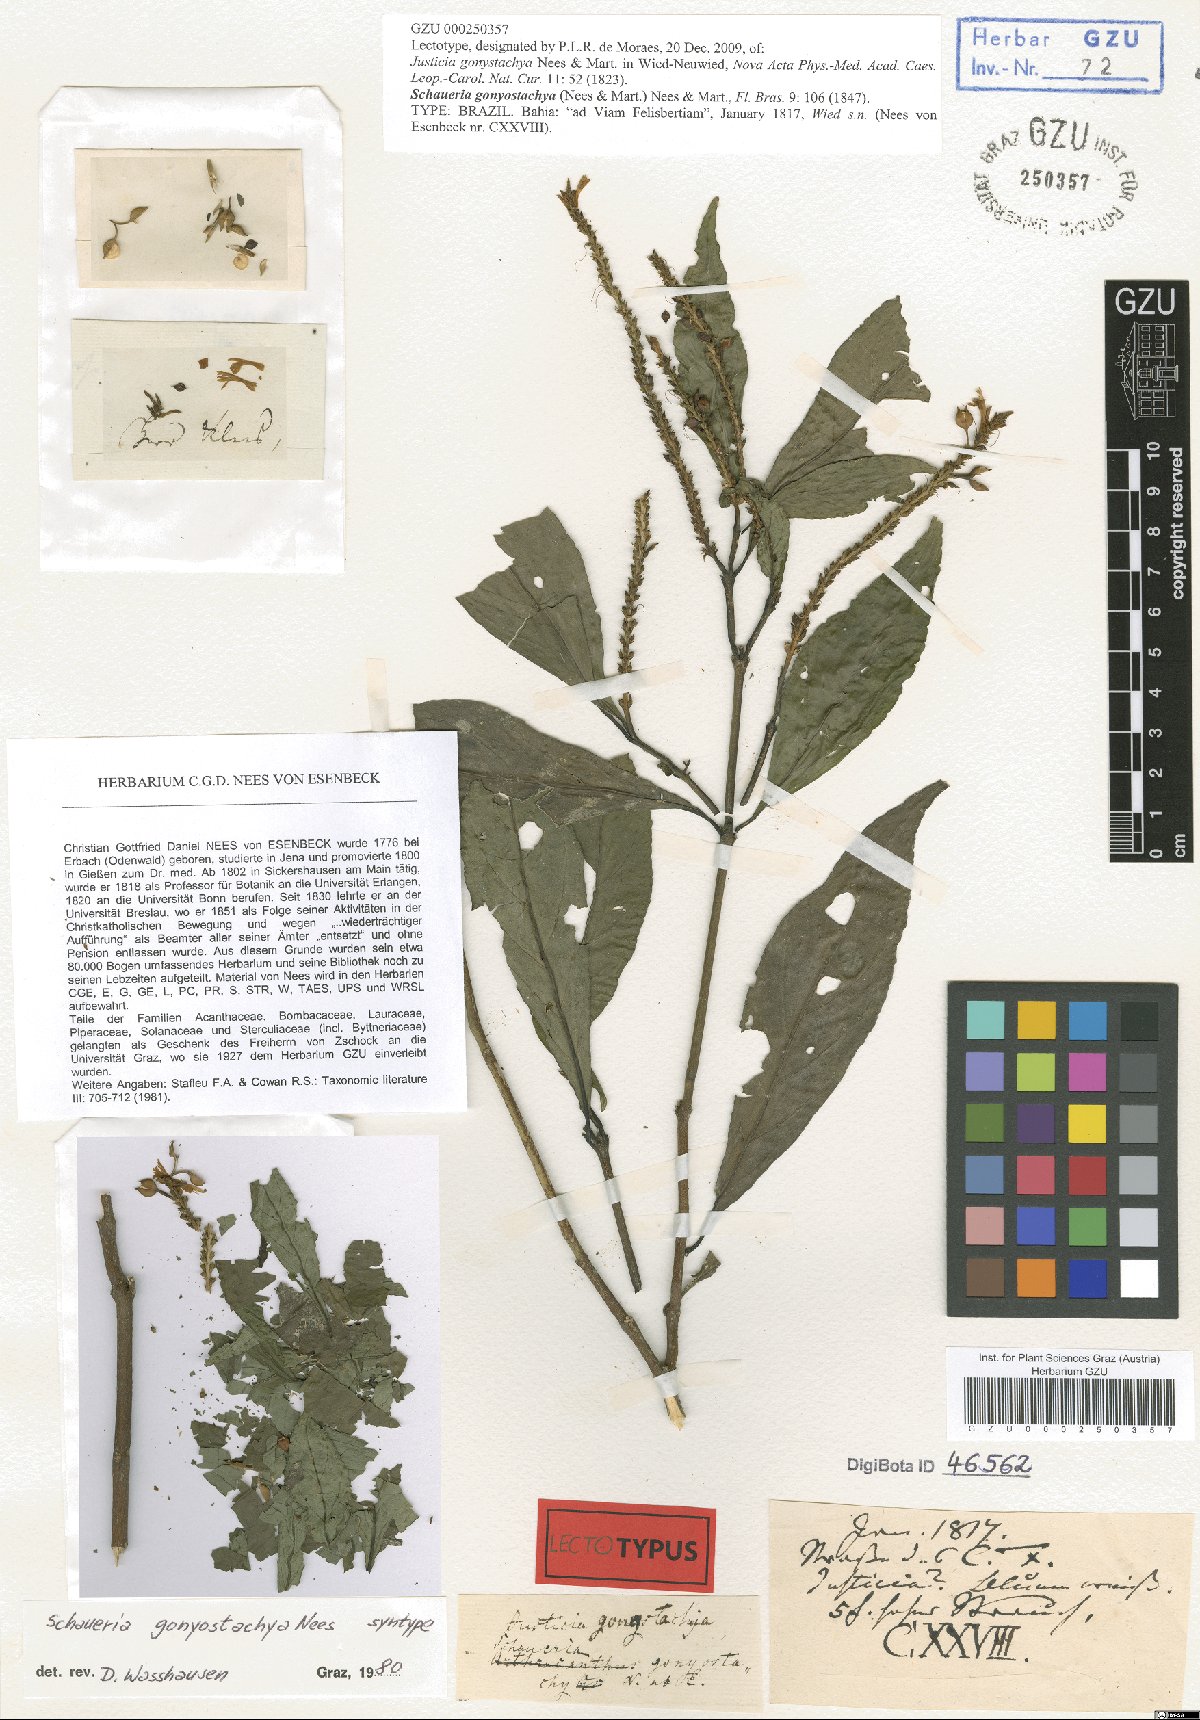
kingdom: Plantae
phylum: Tracheophyta
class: Magnoliopsida
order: Lamiales
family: Acanthaceae
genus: Schaueria
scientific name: Schaueria gonatistachya
